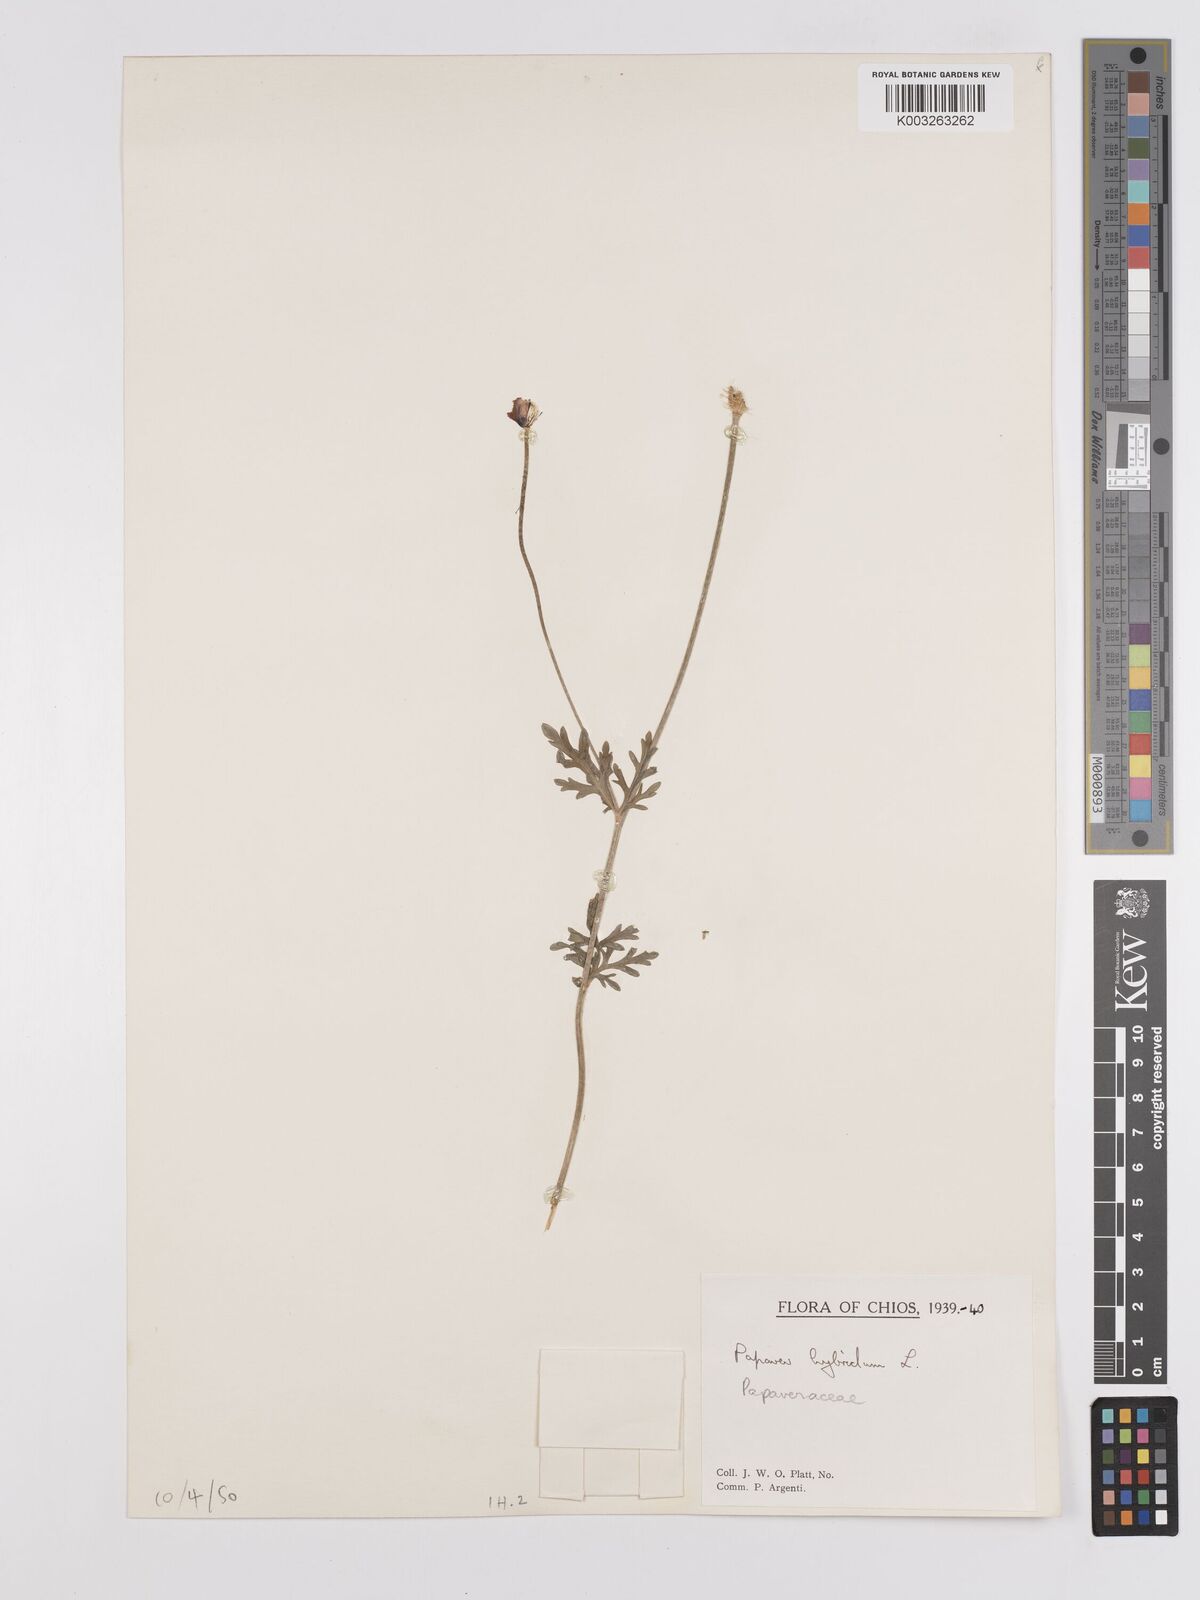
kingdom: Plantae
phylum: Tracheophyta
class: Magnoliopsida
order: Ranunculales
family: Papaveraceae
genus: Roemeria
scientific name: Roemeria hispida
